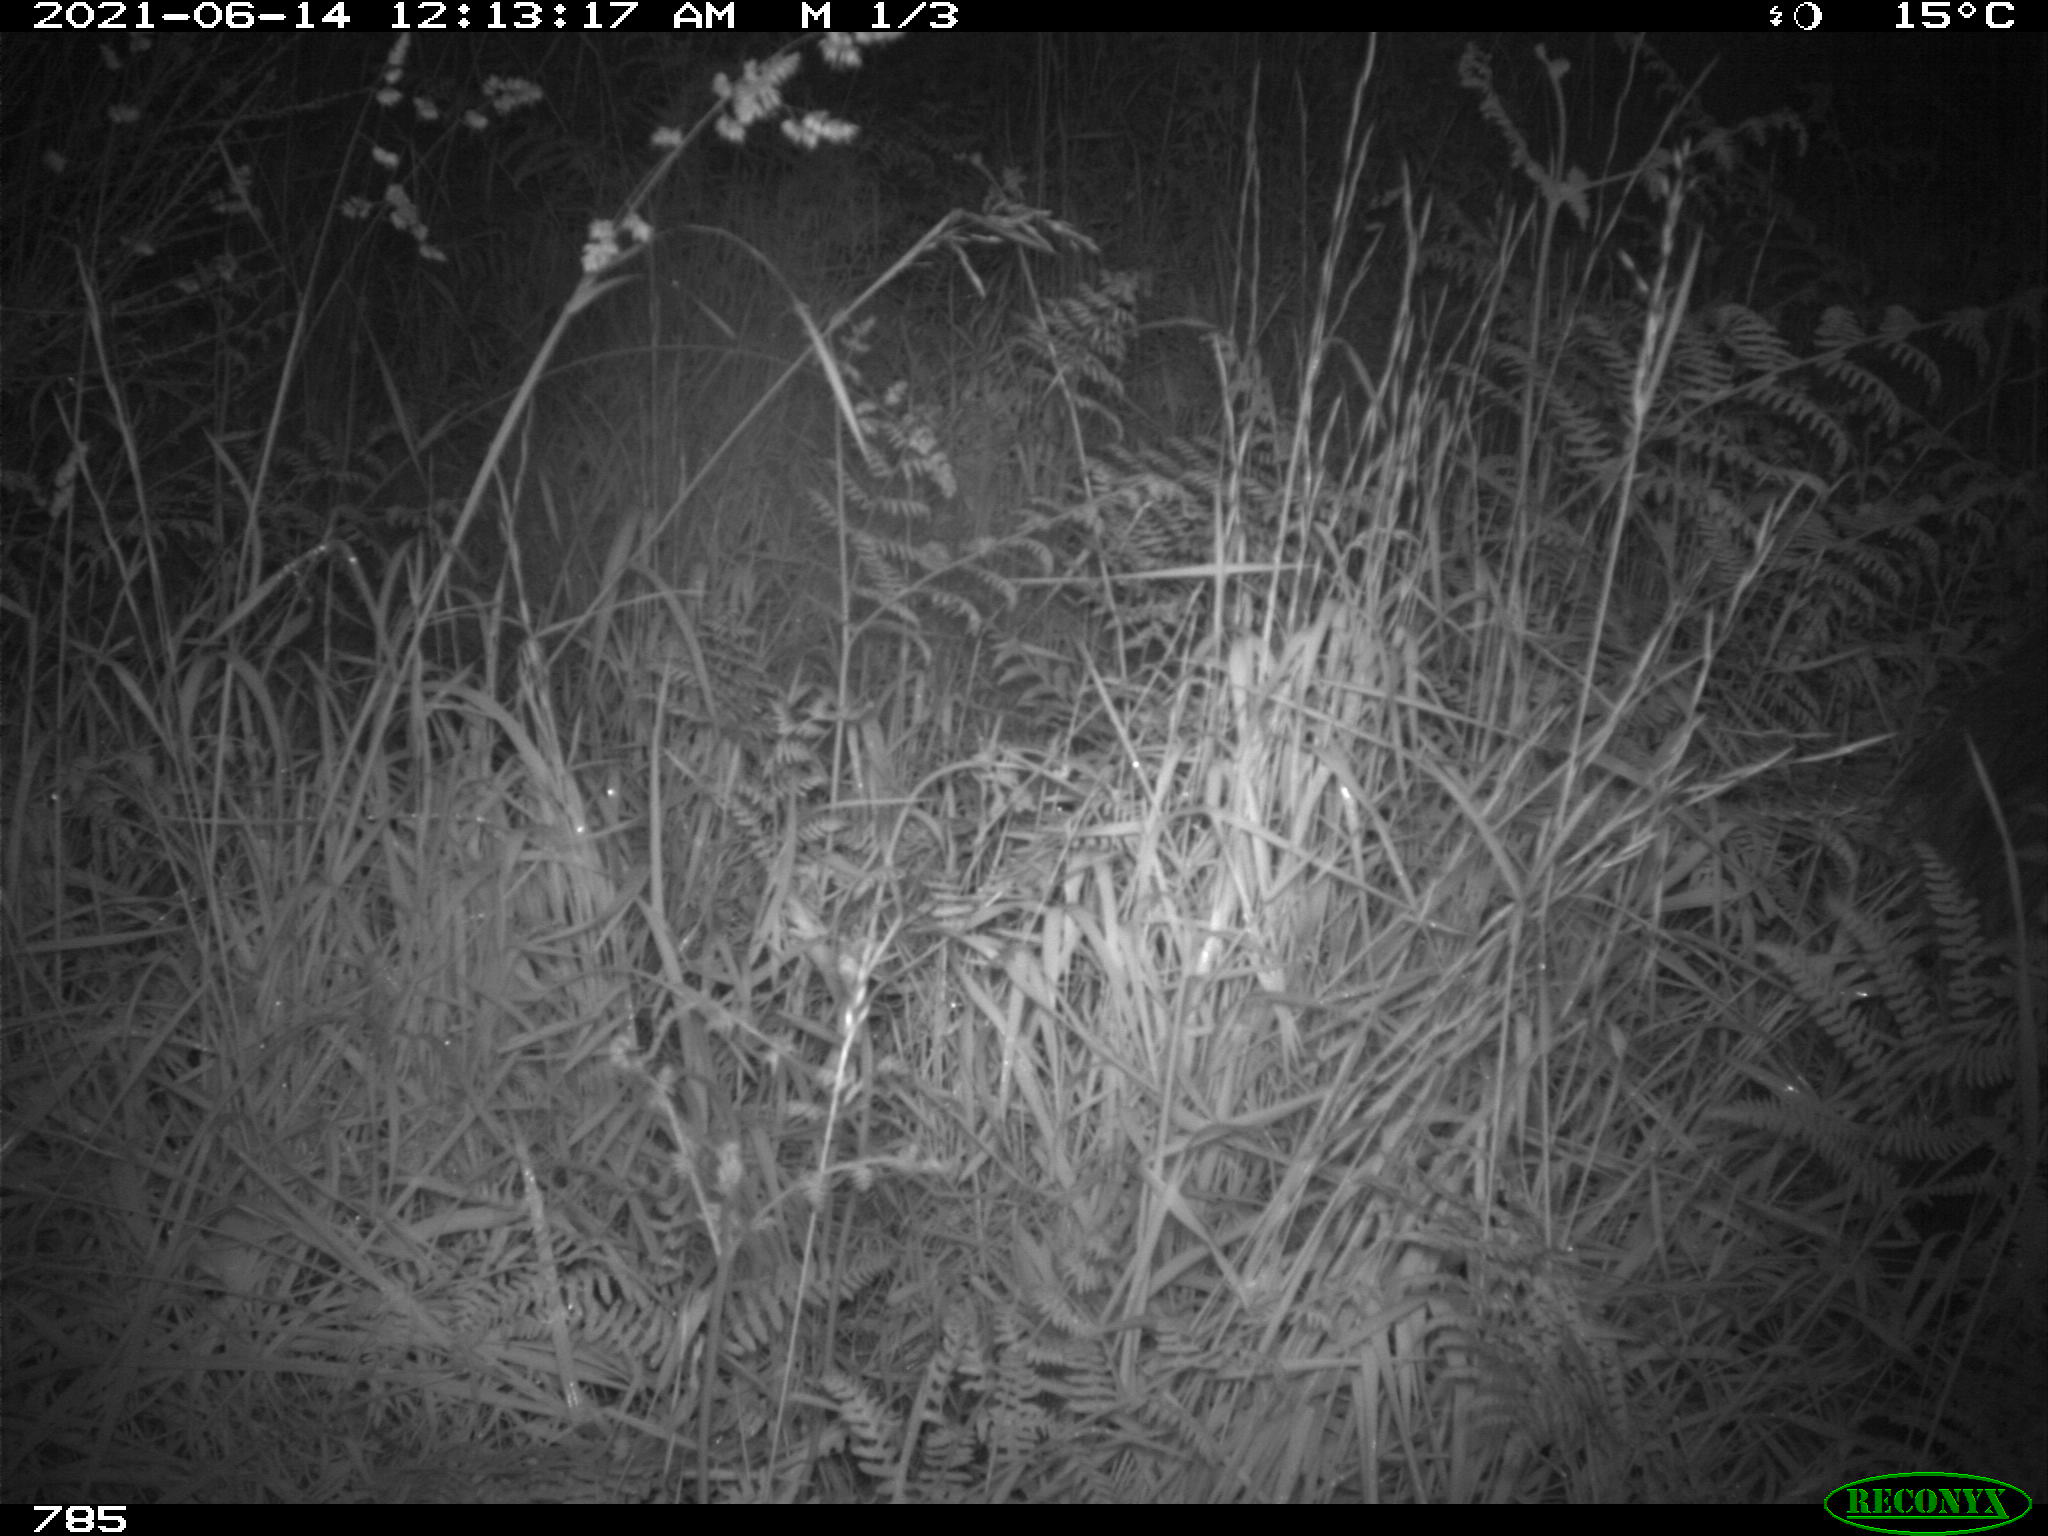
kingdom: Animalia
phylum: Chordata
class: Mammalia
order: Artiodactyla
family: Suidae
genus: Sus
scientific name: Sus scrofa
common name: Wild boar
